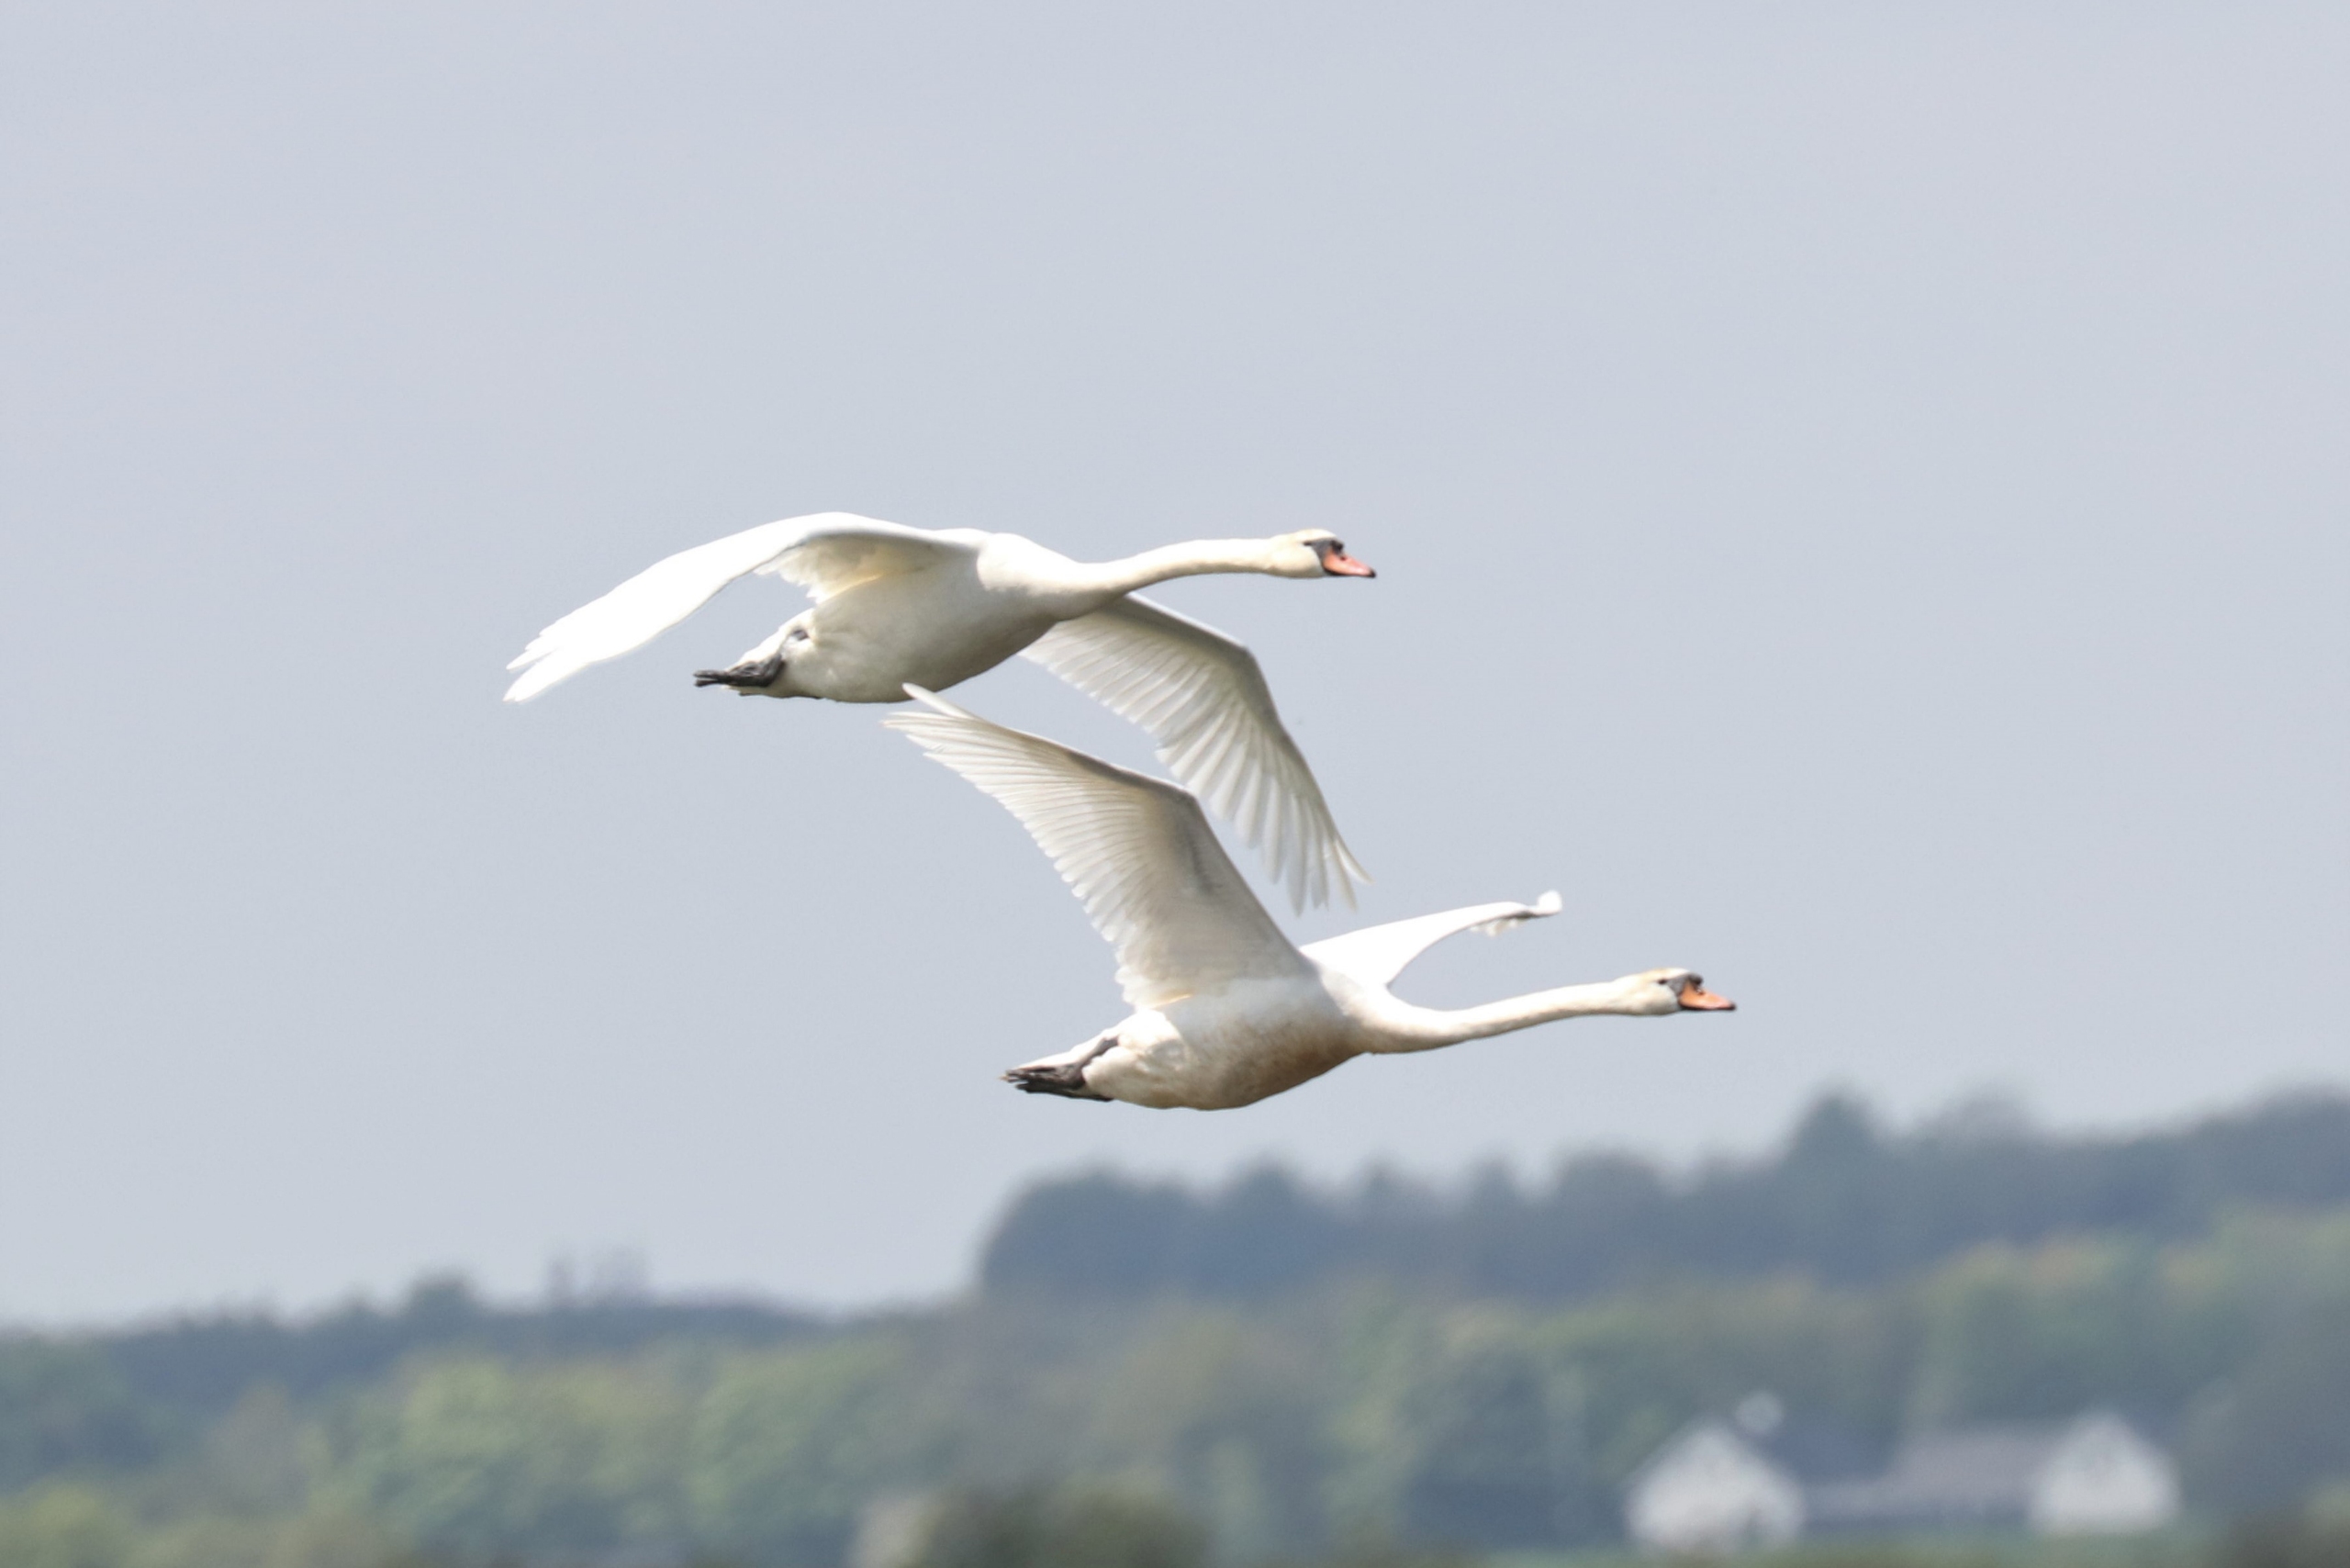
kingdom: Animalia
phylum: Chordata
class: Aves
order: Anseriformes
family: Anatidae
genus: Cygnus
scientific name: Cygnus olor
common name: Knopsvane
